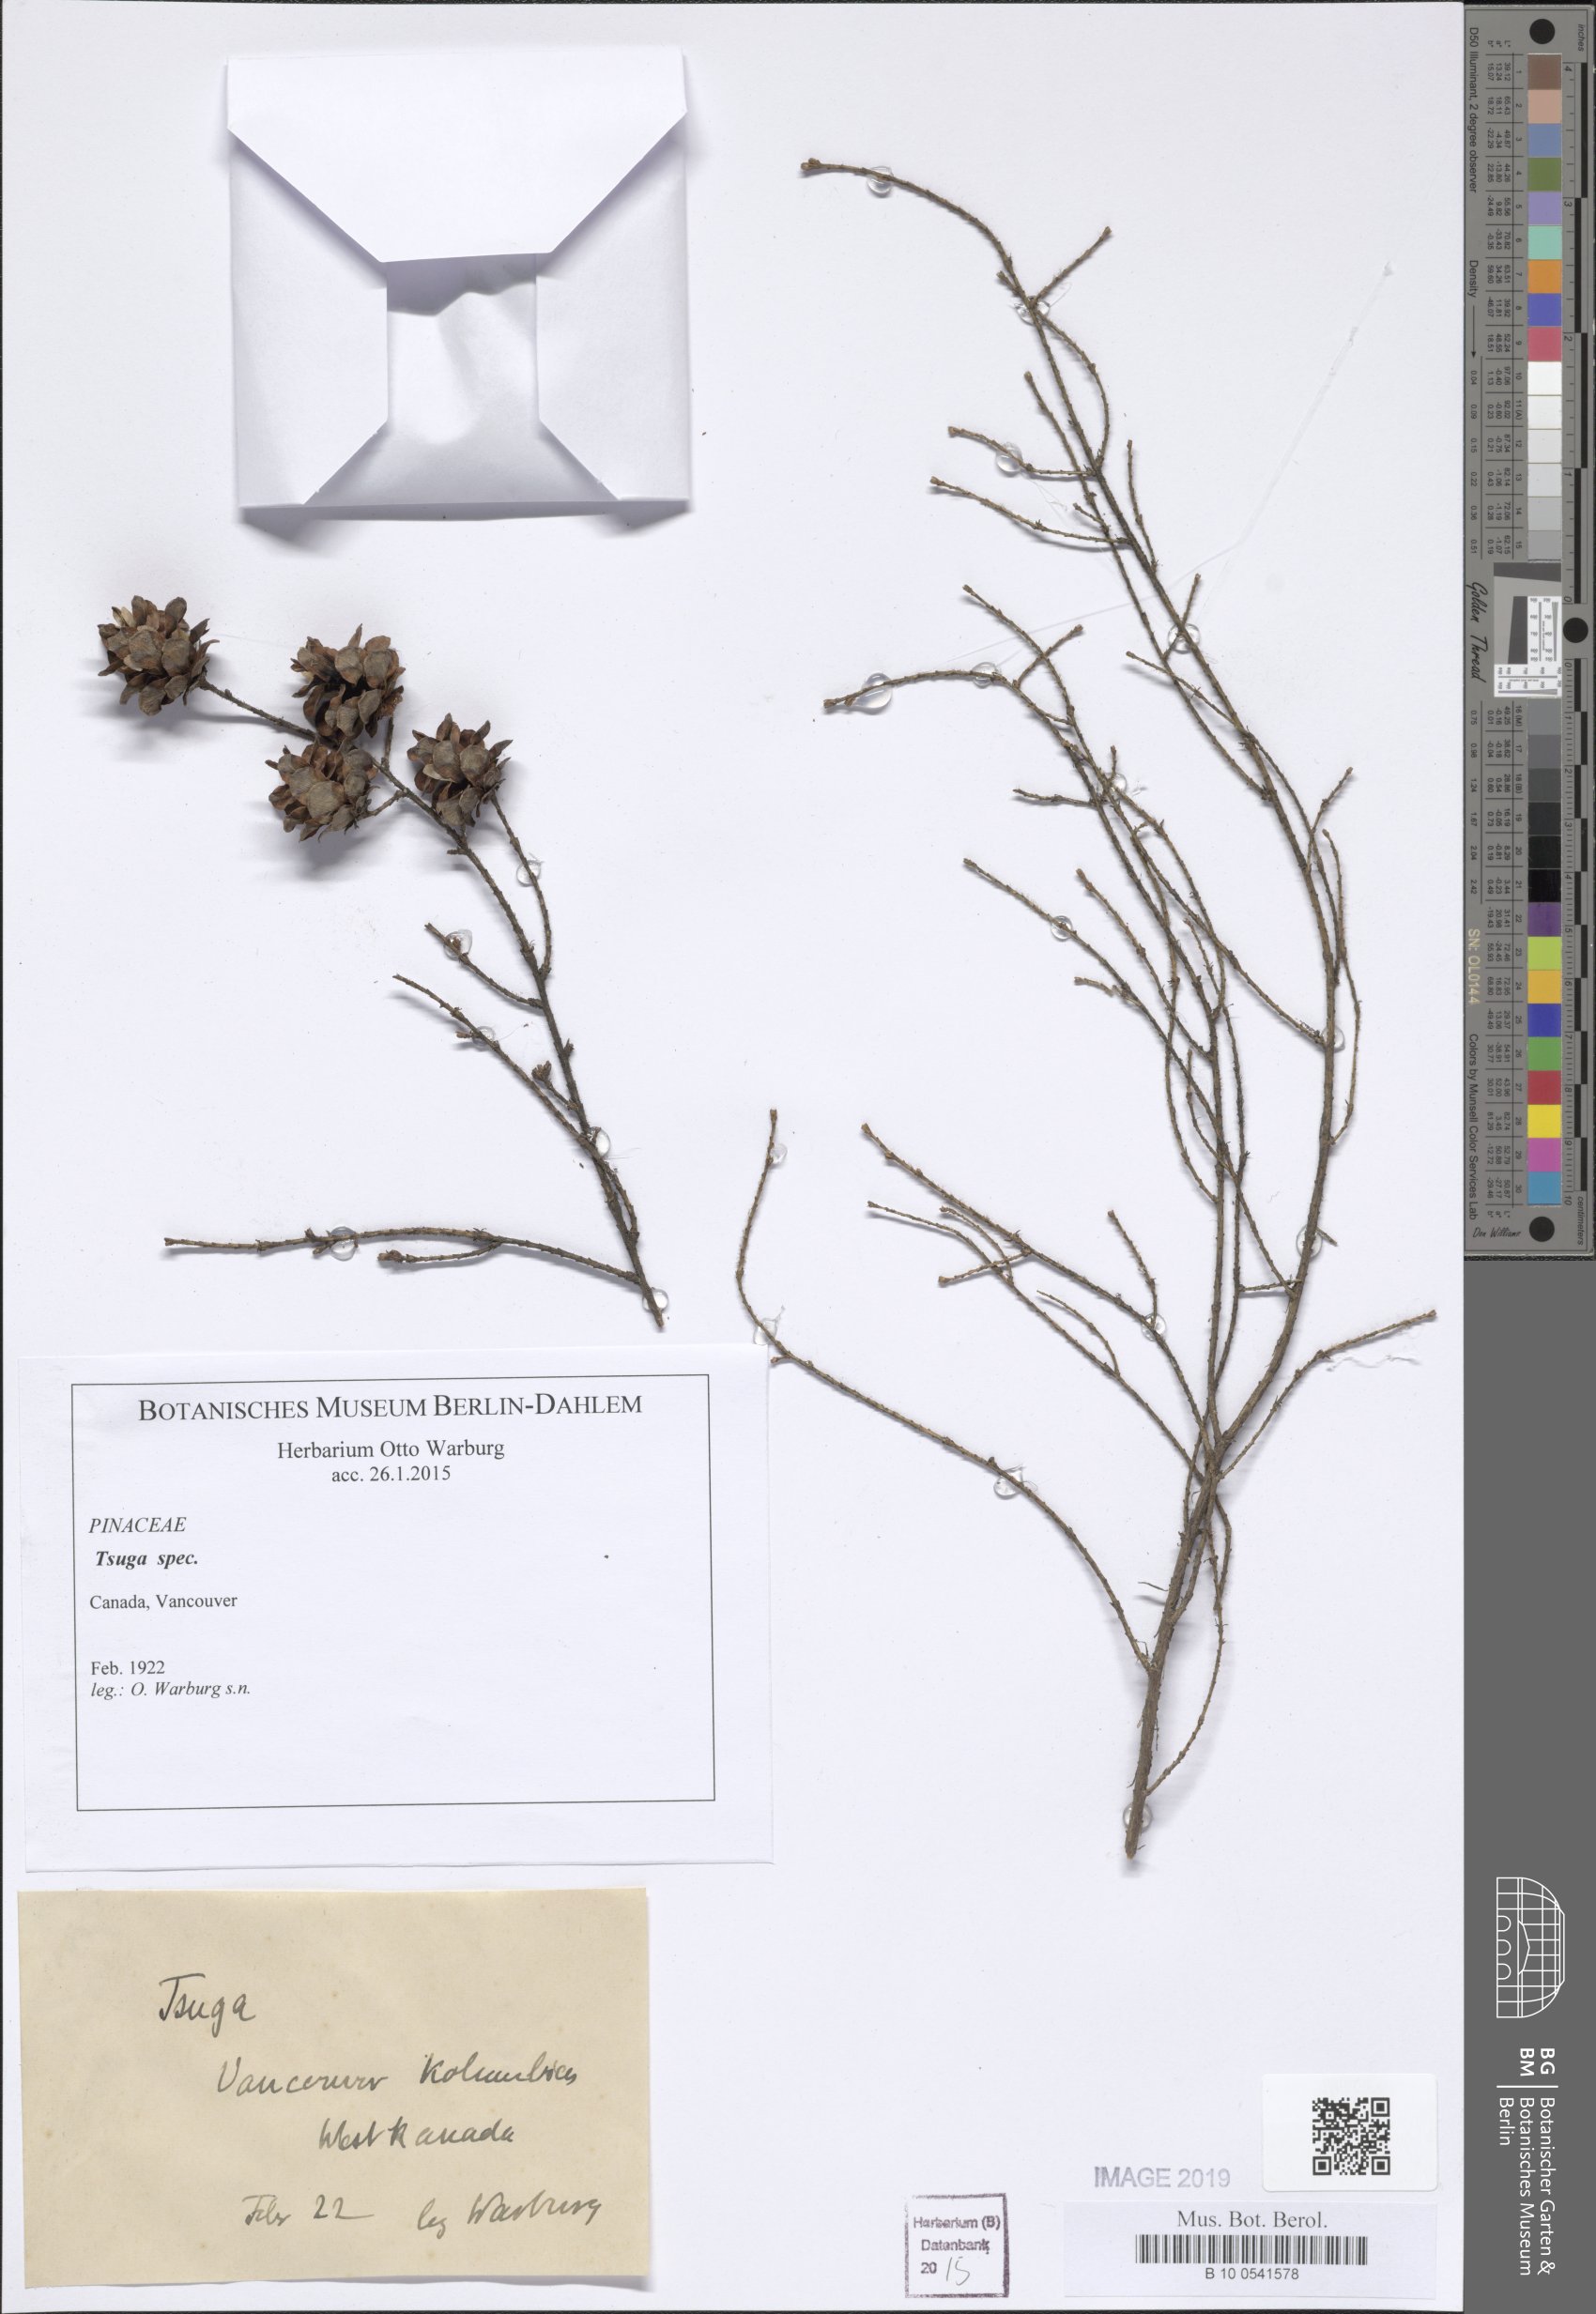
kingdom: Plantae
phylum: Tracheophyta
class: Pinopsida
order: Pinales
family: Pinaceae
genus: Tsuga
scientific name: Tsuga
